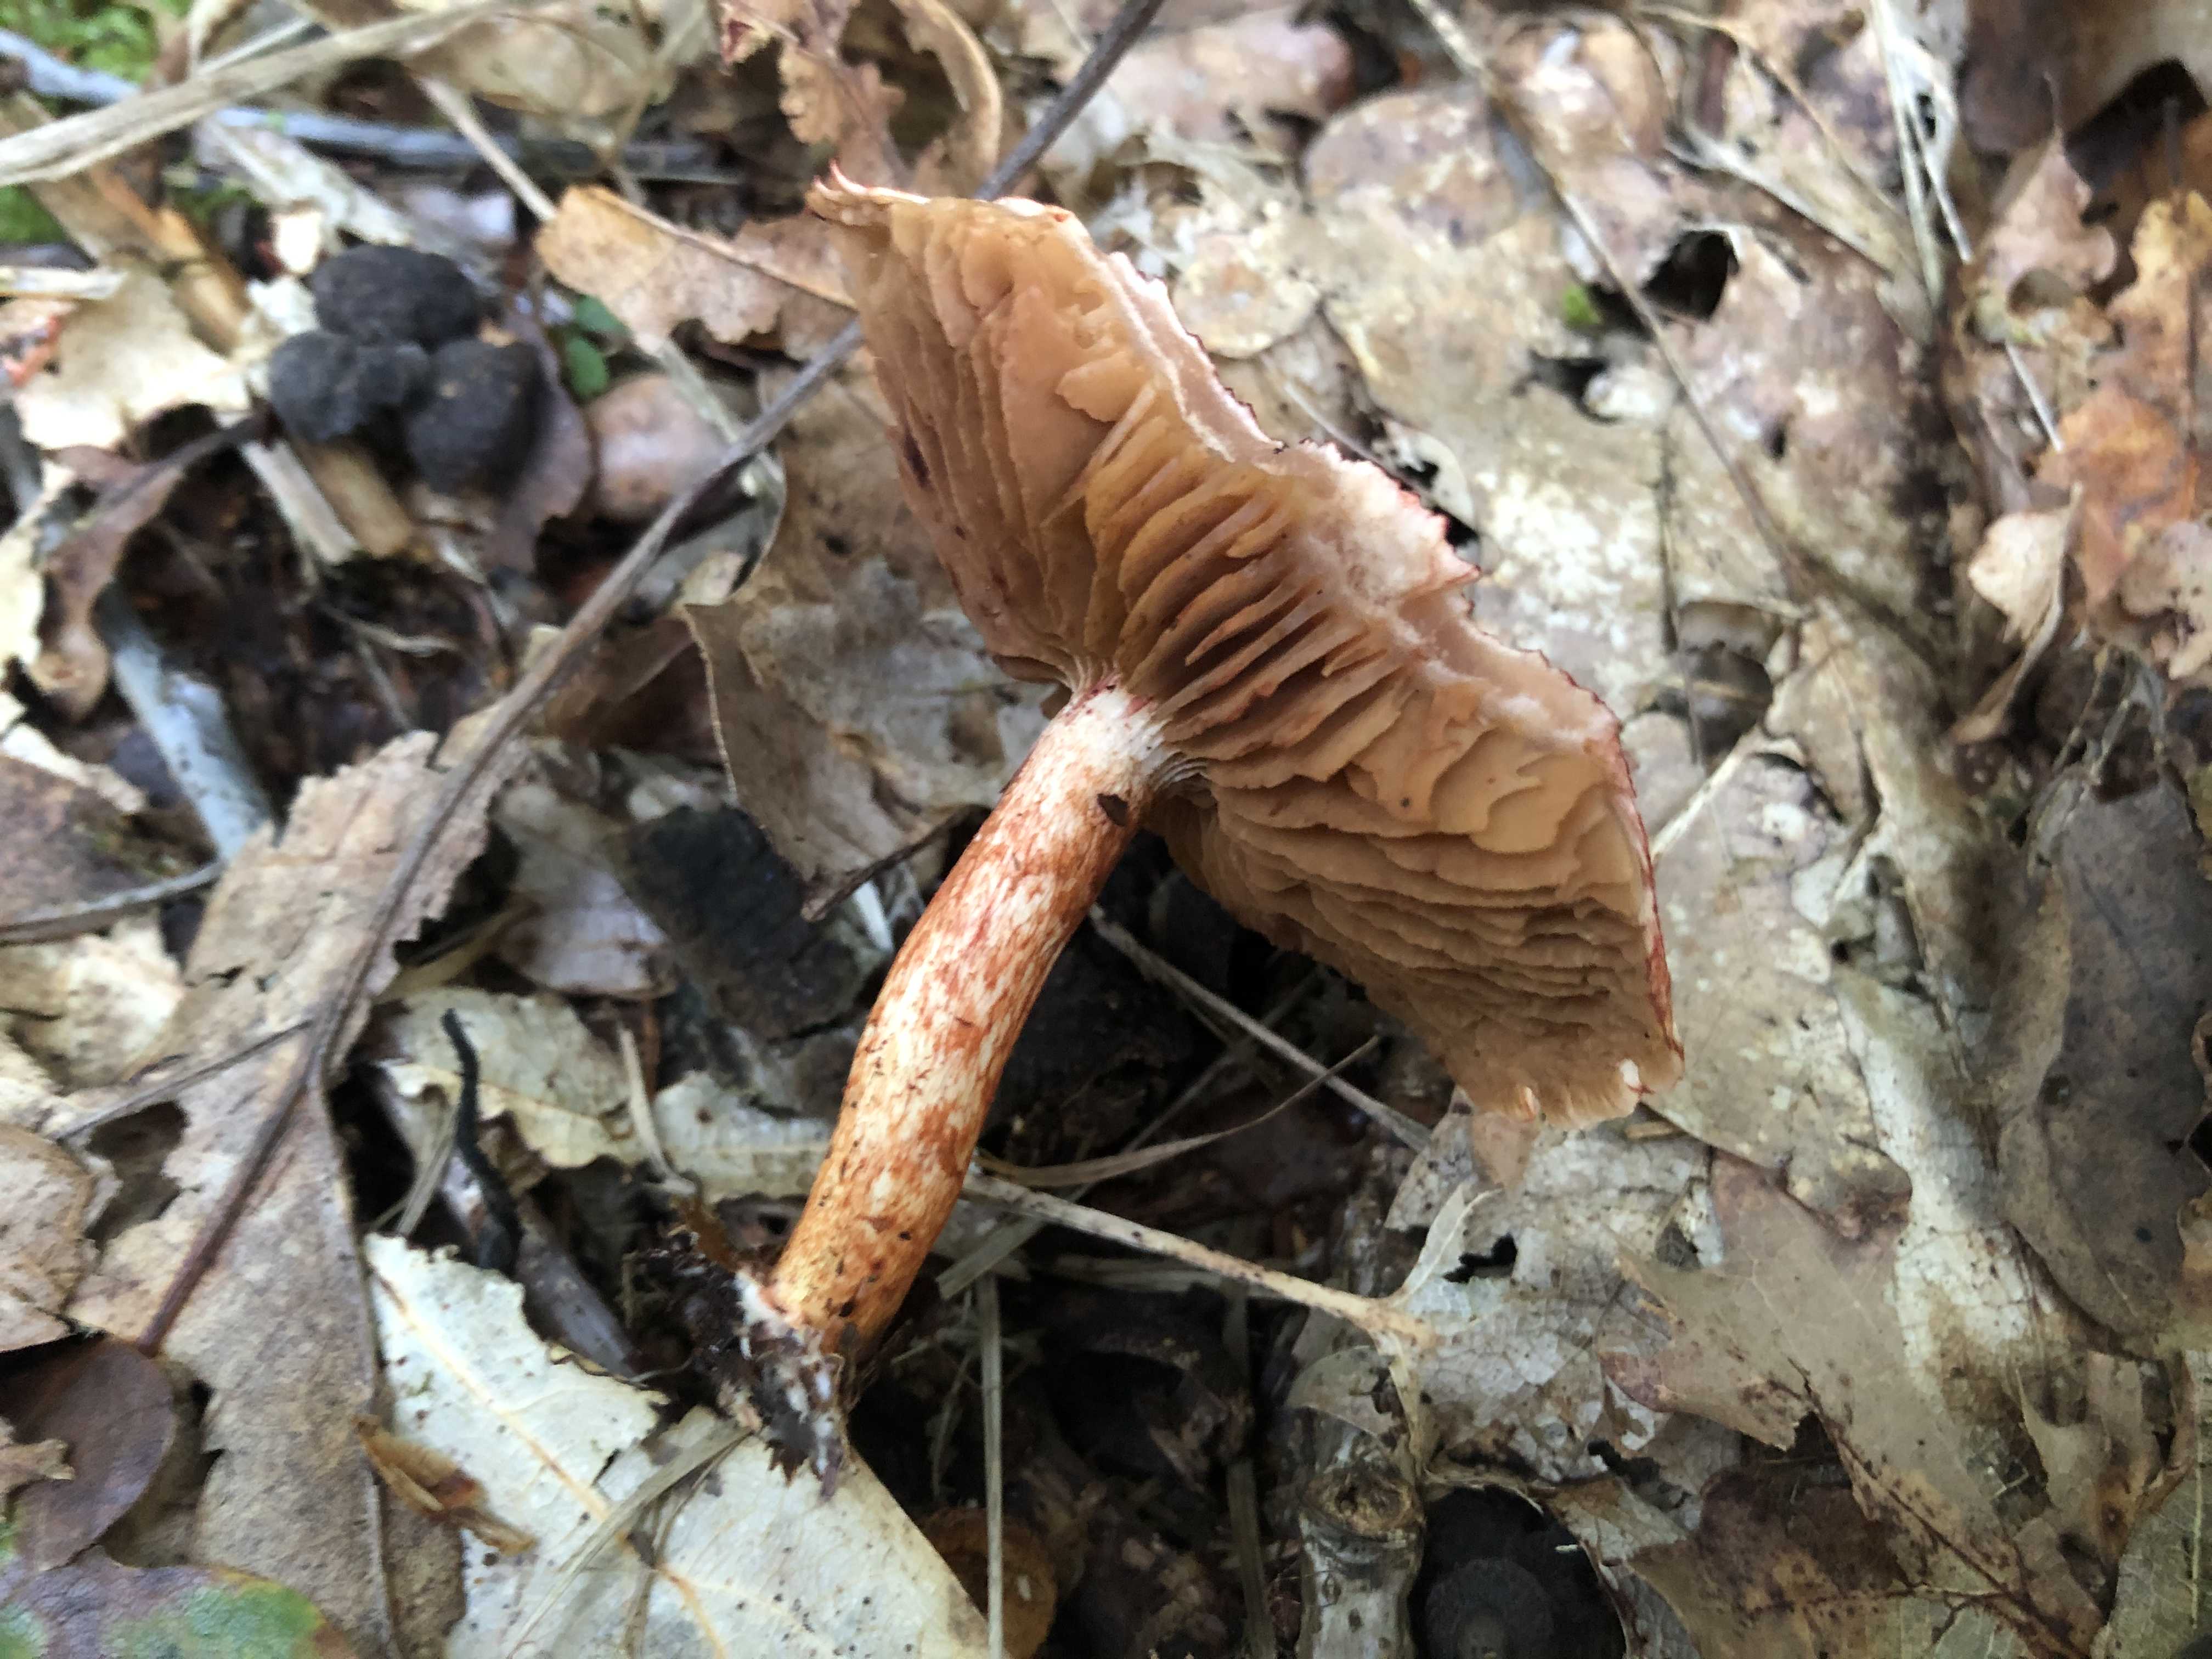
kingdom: Fungi
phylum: Basidiomycota
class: Agaricomycetes
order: Agaricales
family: Cortinariaceae
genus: Cortinarius
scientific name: Cortinarius bolaris
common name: cinnoberskællet slørhat
